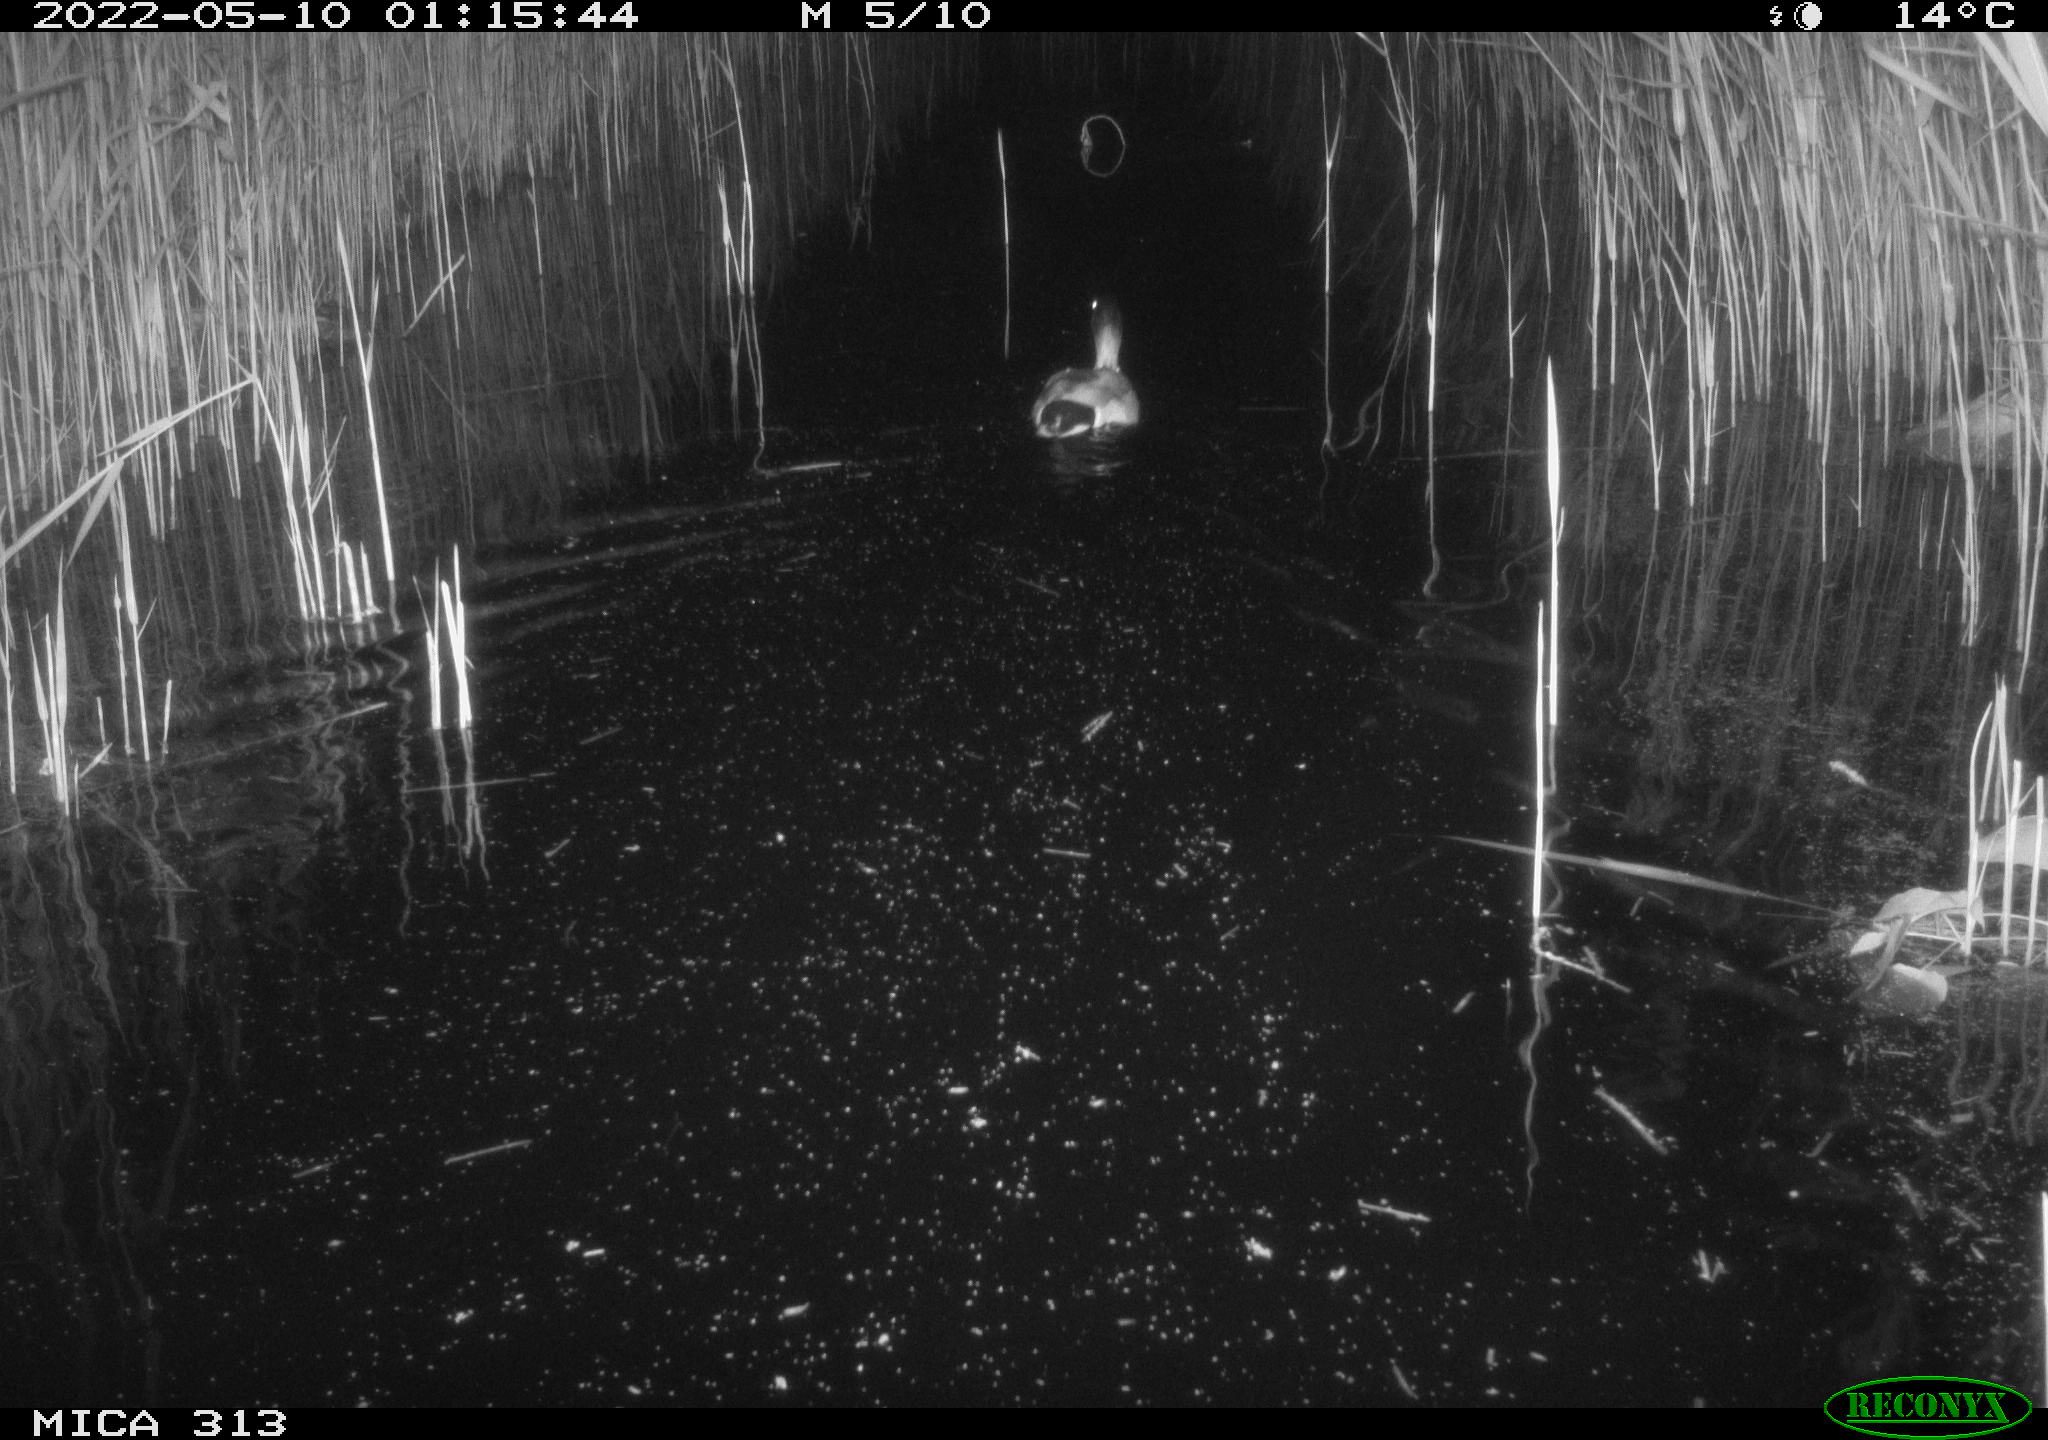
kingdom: Animalia
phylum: Chordata
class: Aves
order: Anseriformes
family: Anatidae
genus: Anas
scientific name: Anas platyrhynchos
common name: Mallard
